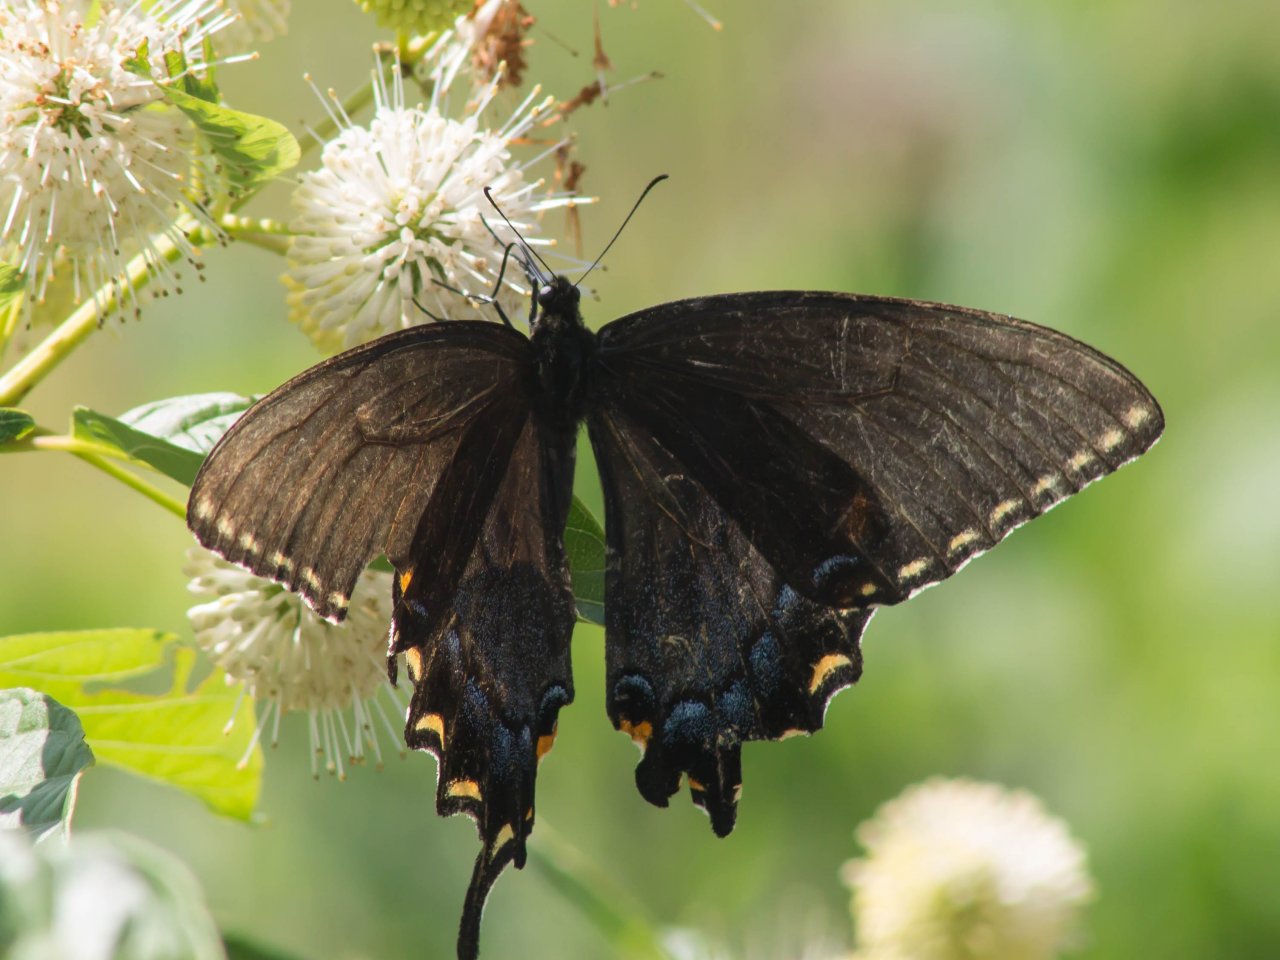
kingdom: Animalia
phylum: Arthropoda
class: Insecta
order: Lepidoptera
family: Papilionidae
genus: Pterourus
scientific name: Pterourus glaucus
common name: Eastern Tiger Swallowtail
